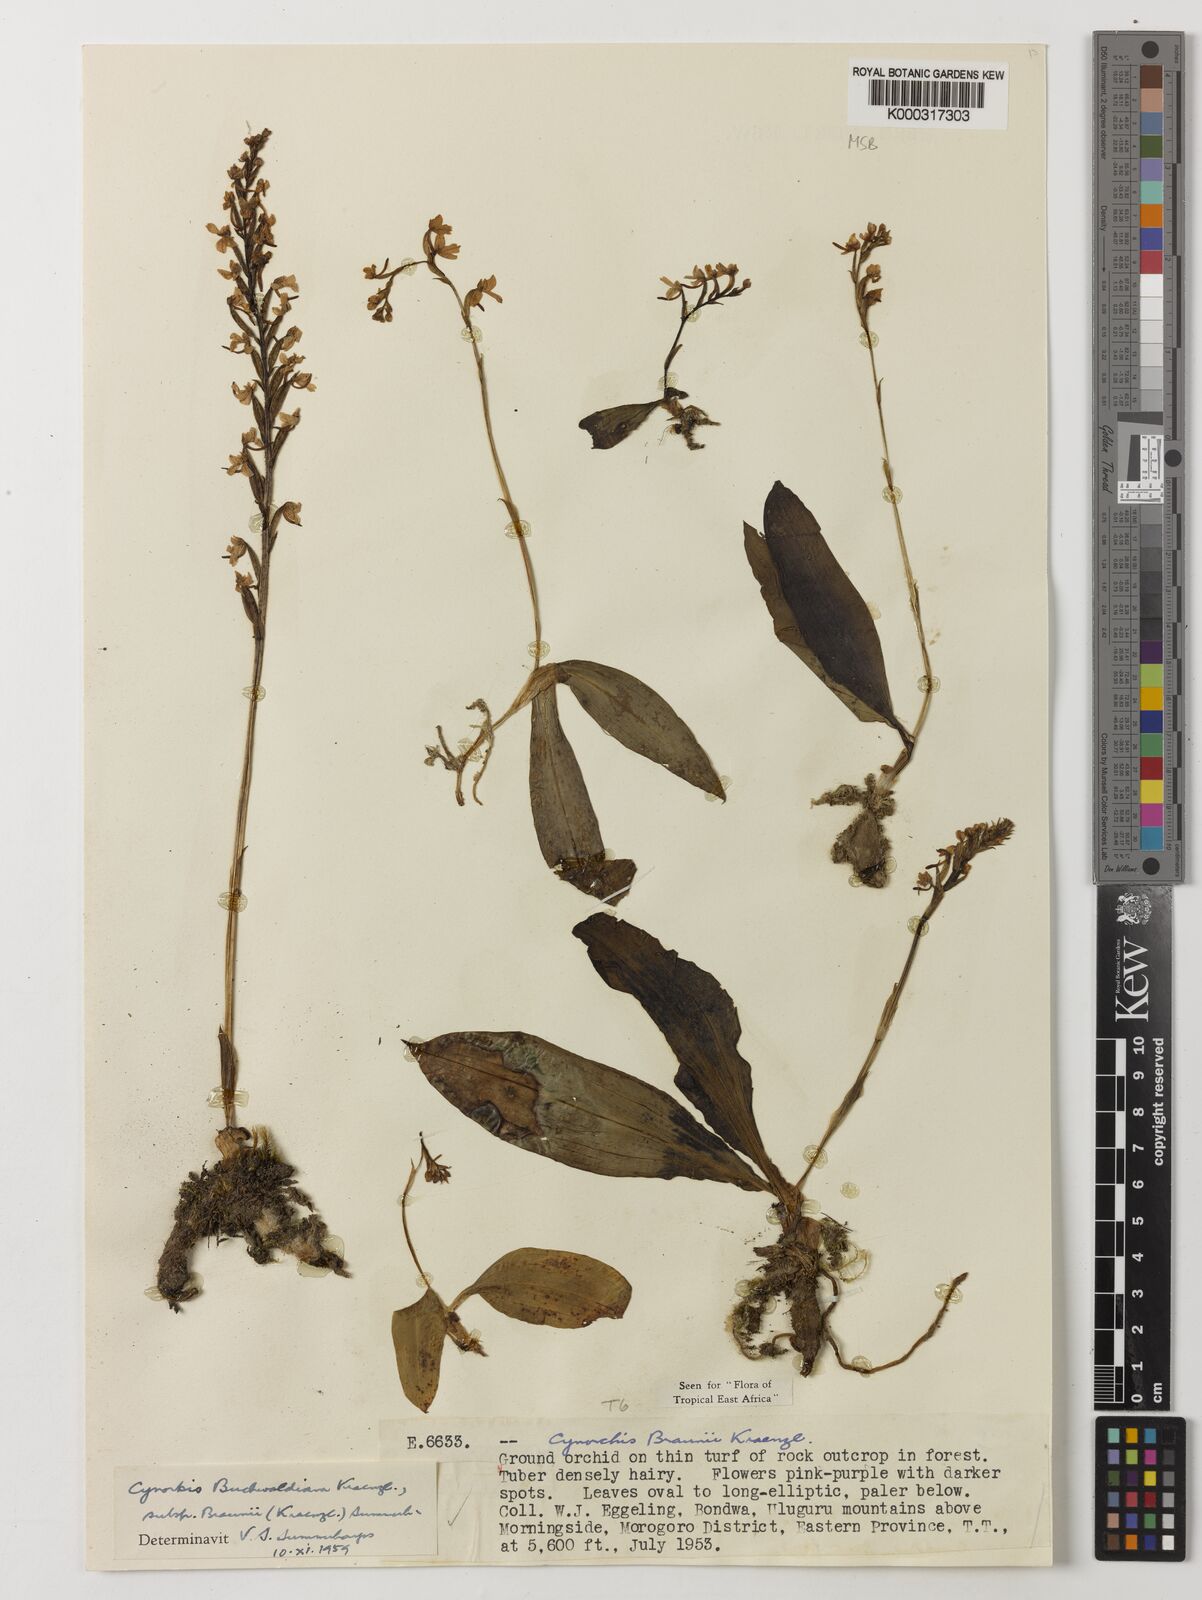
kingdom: Plantae
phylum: Tracheophyta
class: Liliopsida
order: Asparagales
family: Orchidaceae
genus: Cynorkis
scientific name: Cynorkis buchwaldiana
